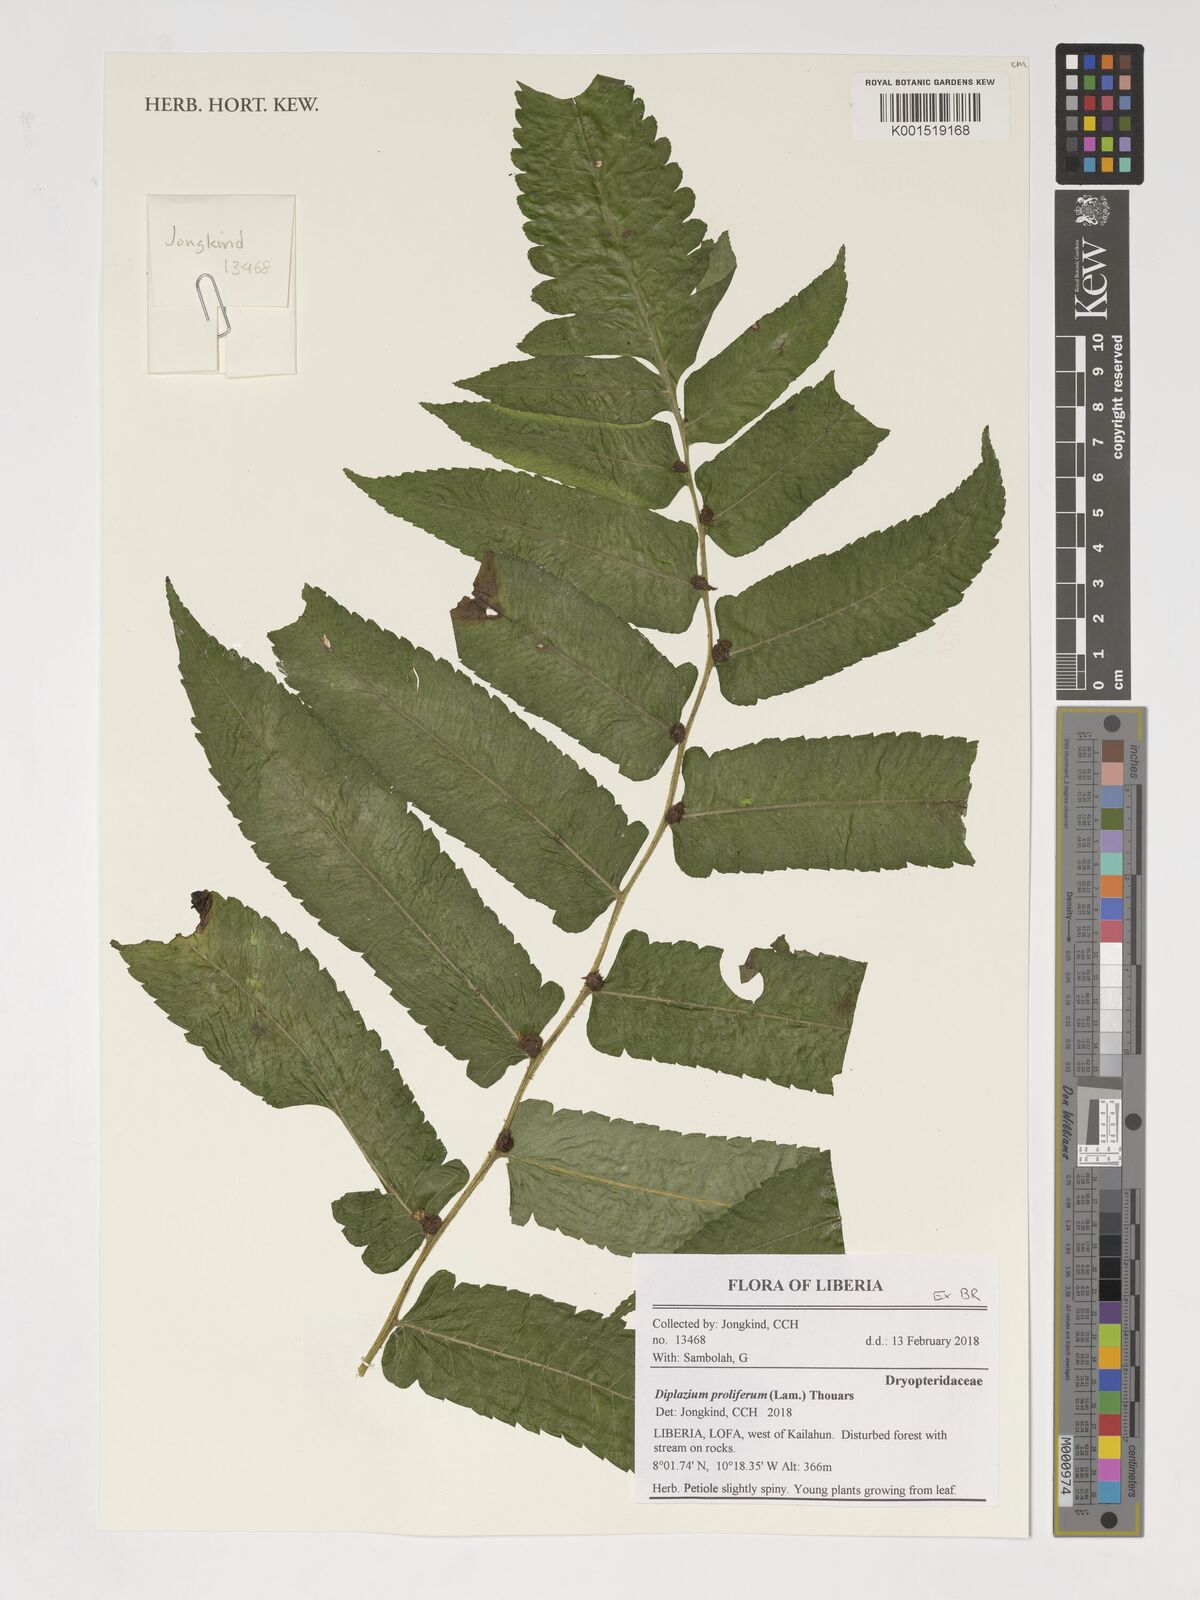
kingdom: Plantae
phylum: Tracheophyta
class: Polypodiopsida
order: Polypodiales
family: Athyriaceae
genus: Diplazium
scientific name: Diplazium
